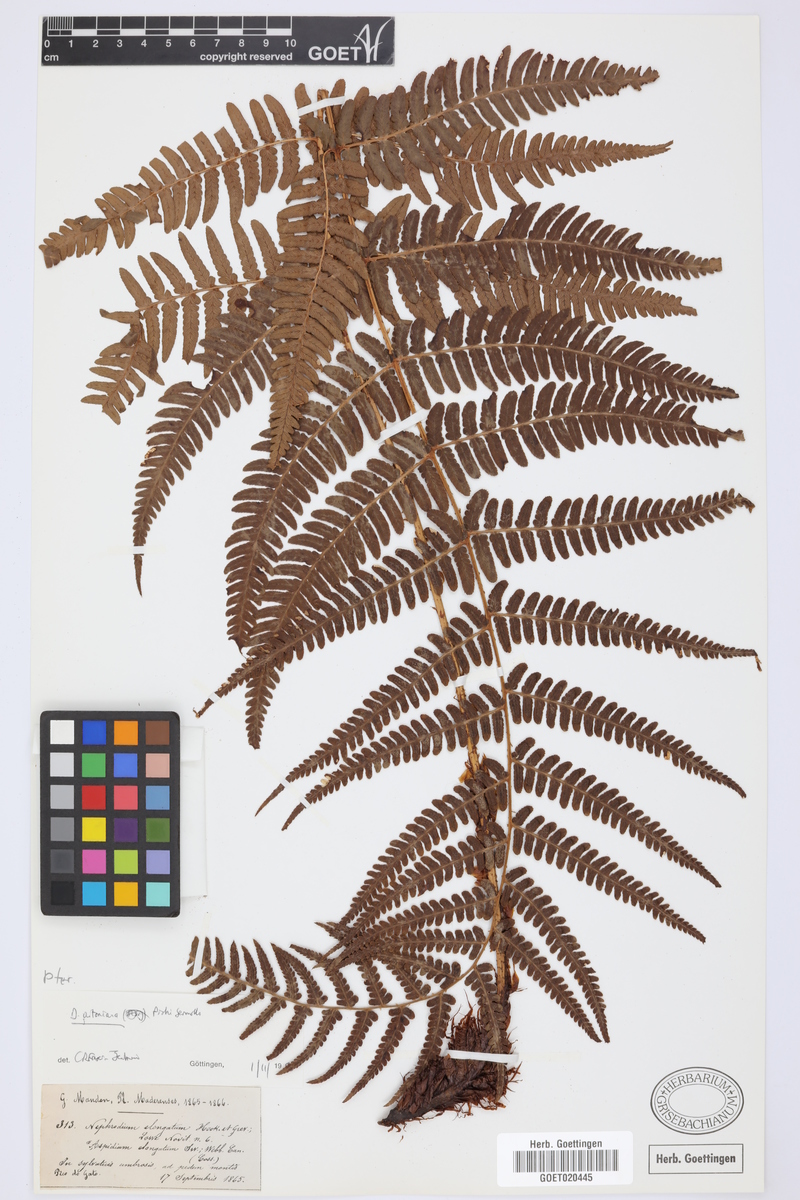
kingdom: Plantae
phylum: Tracheophyta
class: Polypodiopsida
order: Polypodiales
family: Dryopteridaceae
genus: Dryopteris
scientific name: Dryopteris aitoniana
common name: Aiton's buckler-fern
